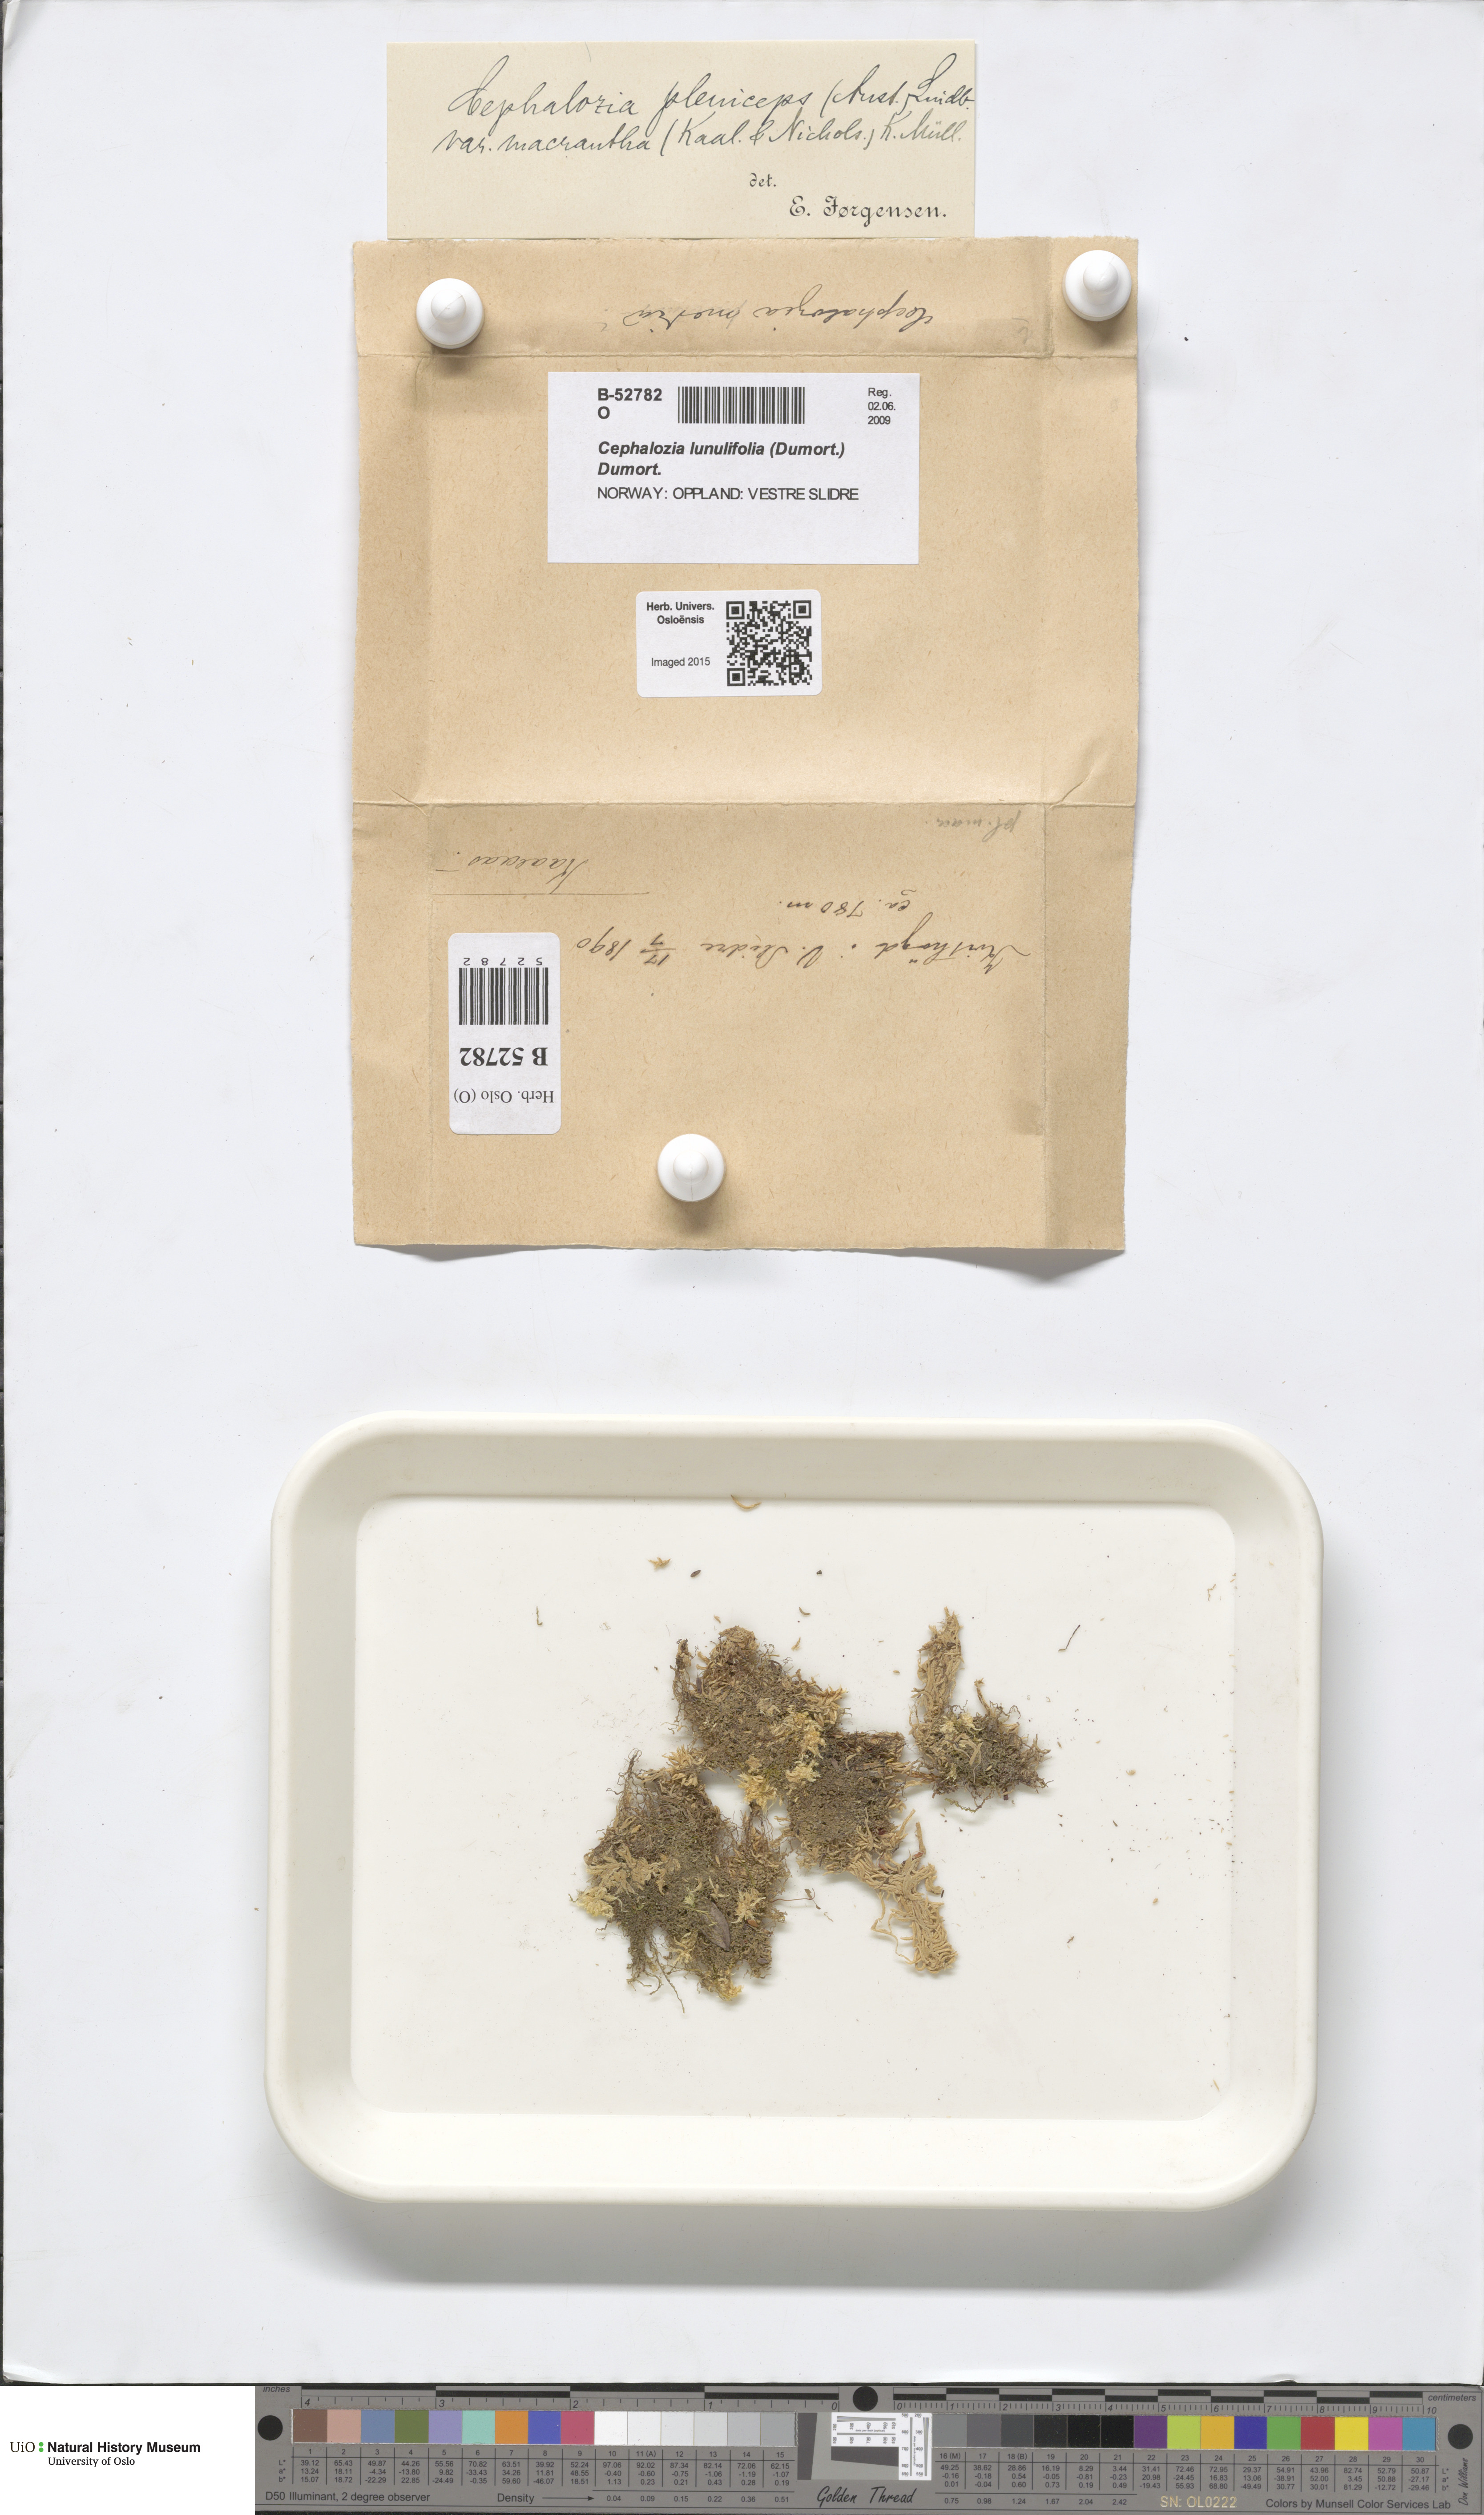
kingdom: Plantae
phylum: Marchantiophyta
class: Jungermanniopsida
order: Jungermanniales
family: Cephaloziaceae
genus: Fuscocephaloziopsis
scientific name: Fuscocephaloziopsis pleniceps
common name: Blunt pincerwort
